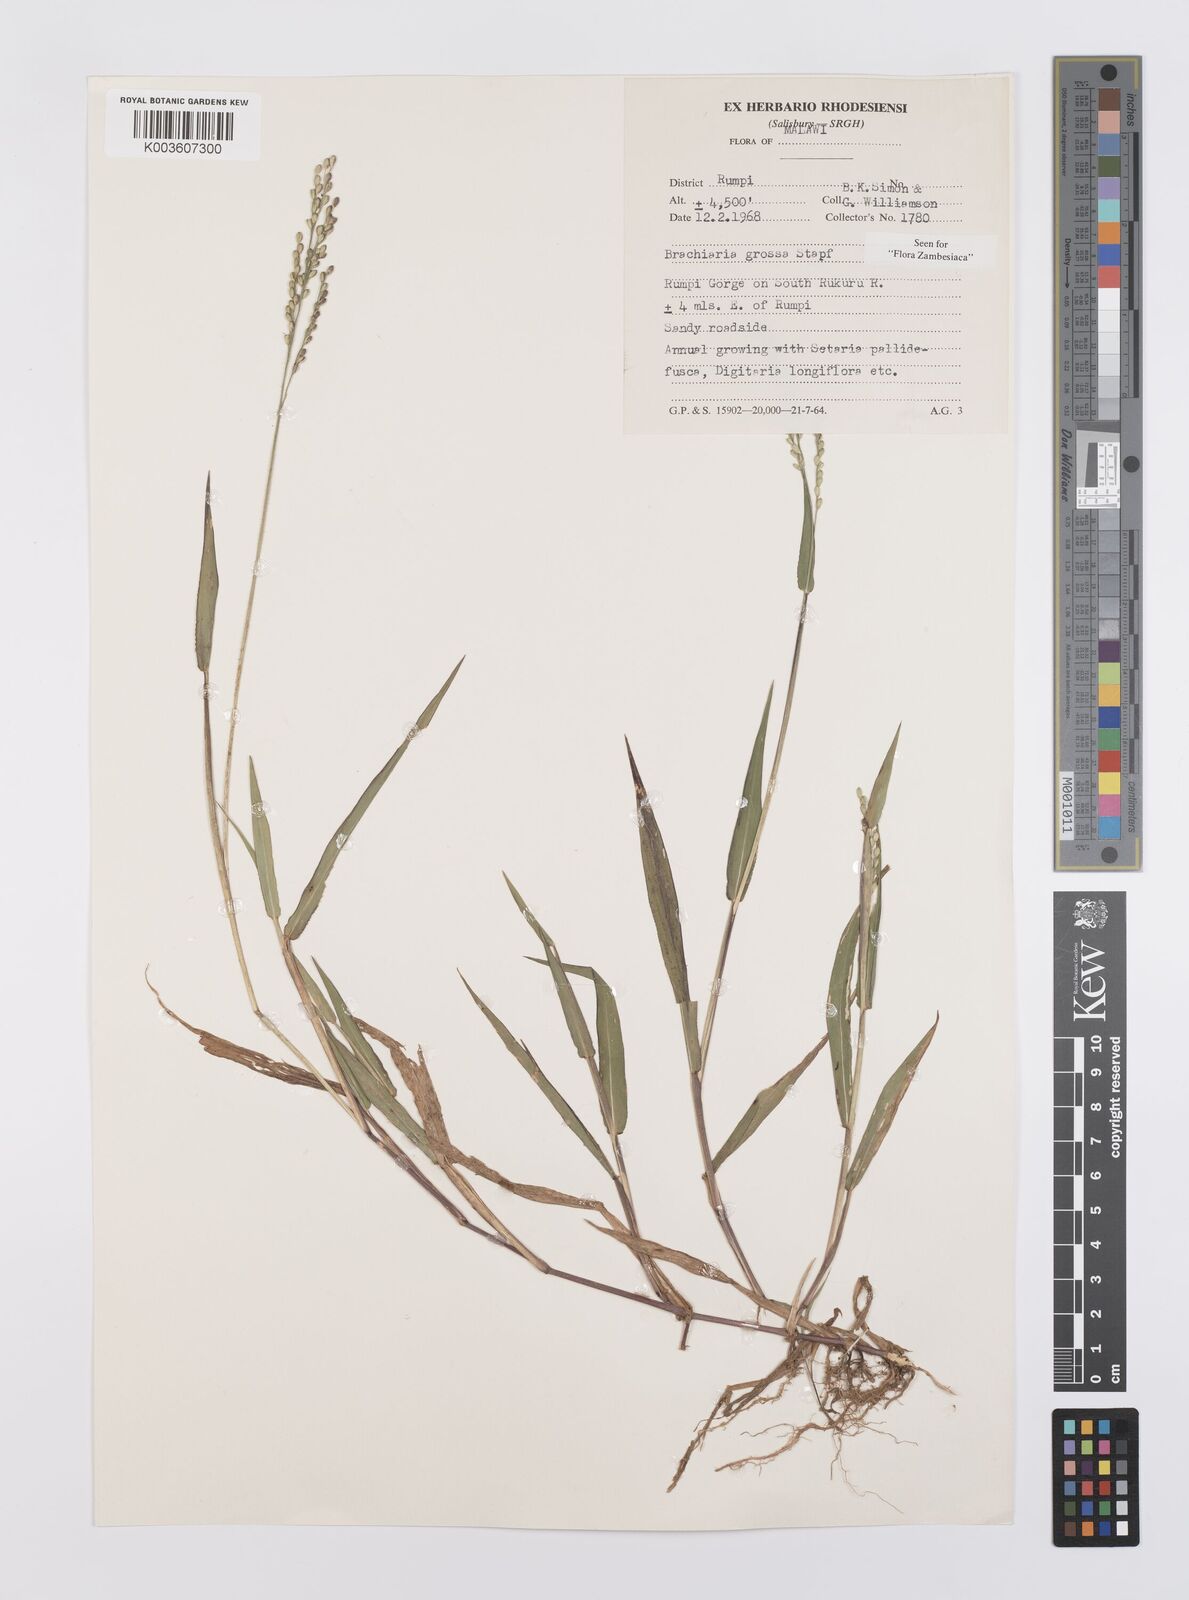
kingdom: Plantae
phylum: Tracheophyta
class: Liliopsida
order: Poales
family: Poaceae
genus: Urochloa
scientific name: Urochloa Brachiaria grossa
